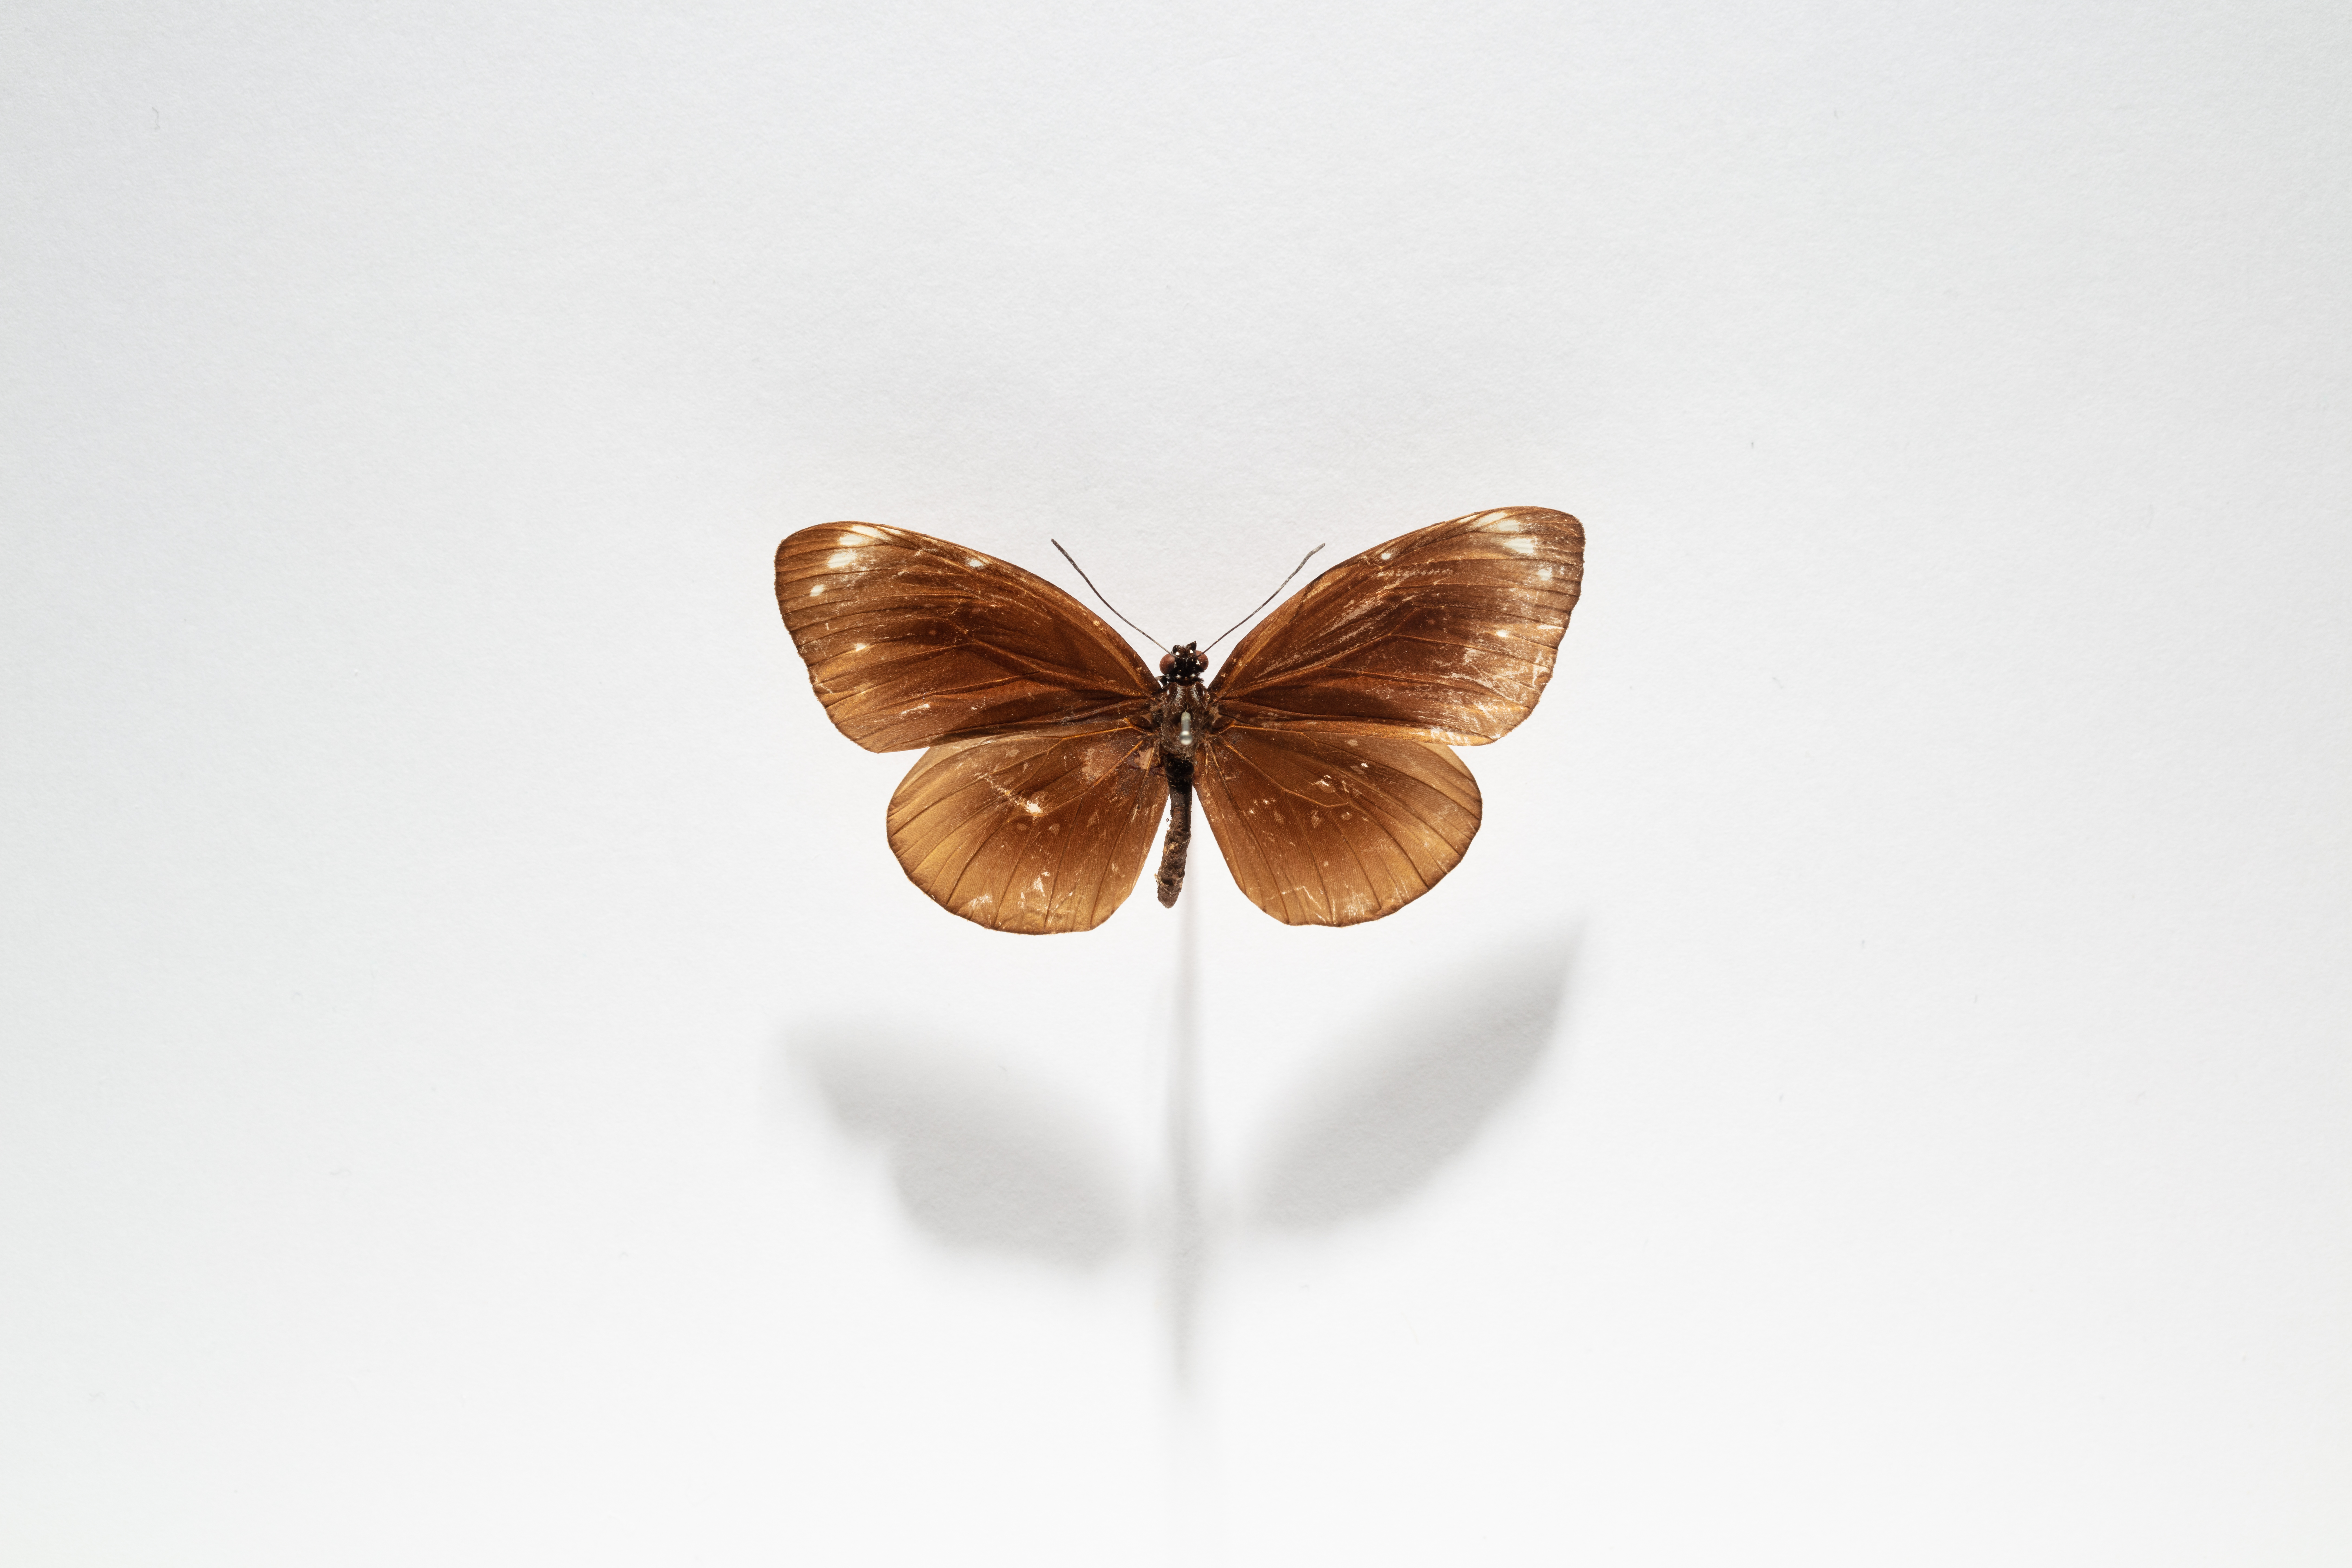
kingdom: Animalia
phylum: Arthropoda
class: Insecta
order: Lepidoptera
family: Nymphalidae
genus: Euploea
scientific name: Euploea algea
